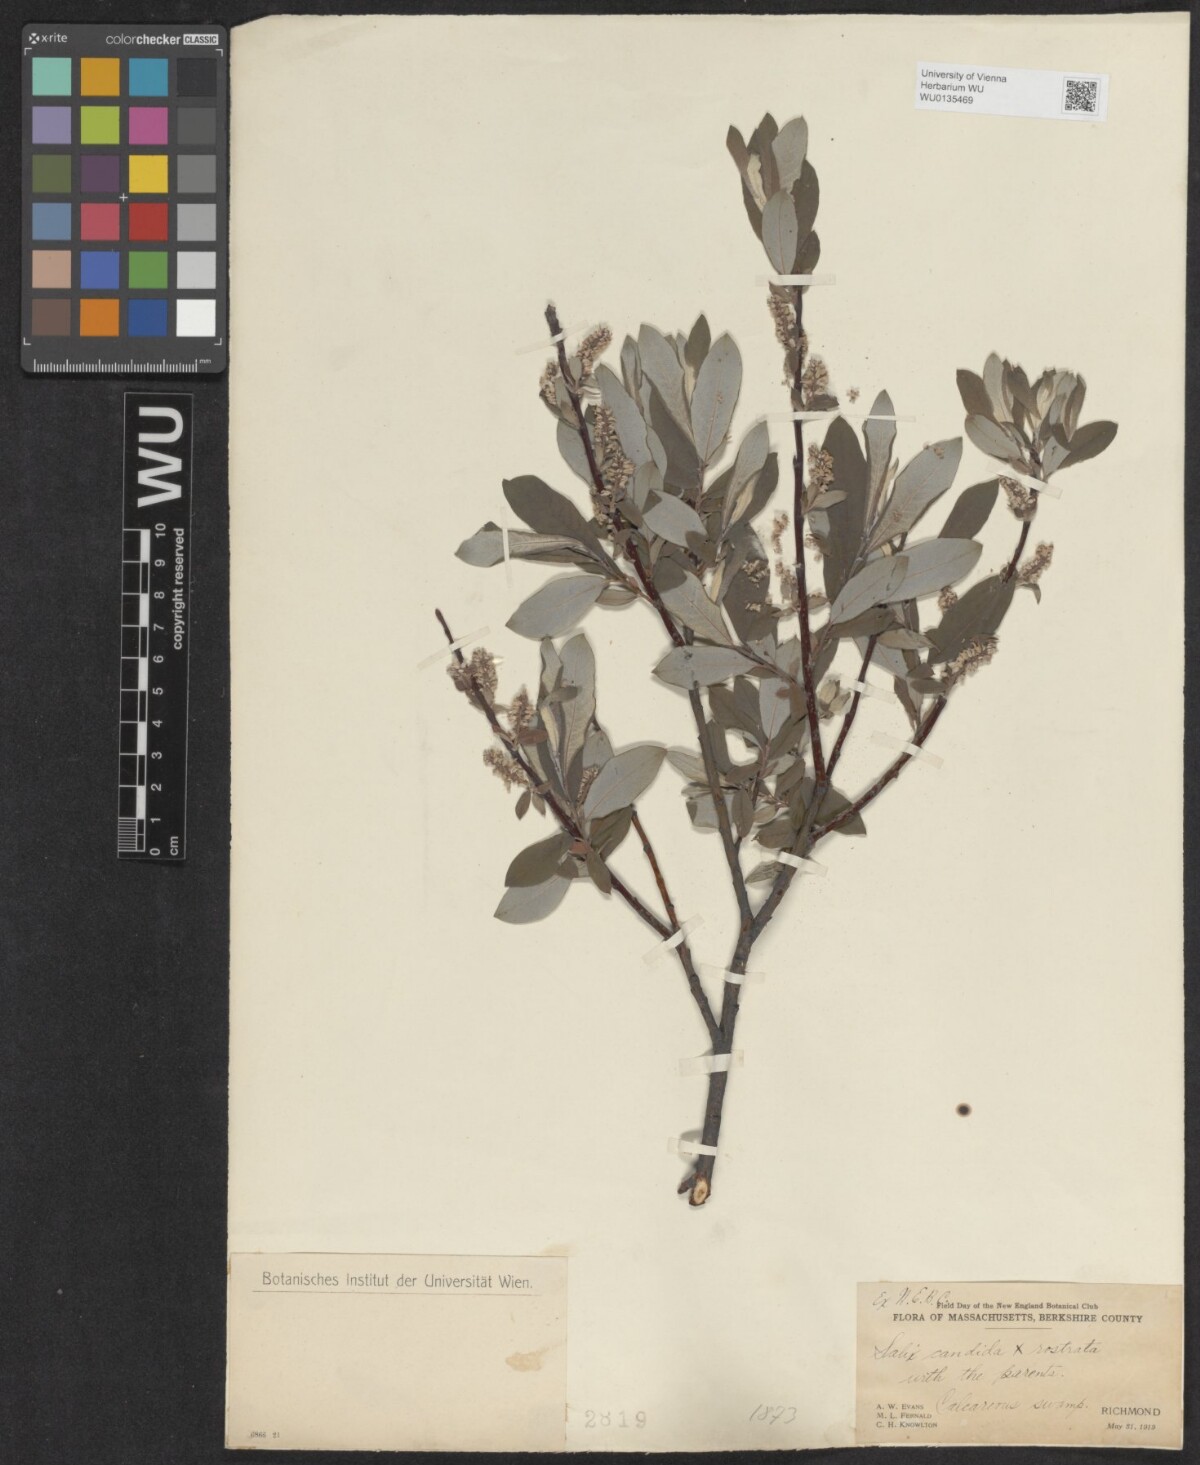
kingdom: Plantae
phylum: Tracheophyta
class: Magnoliopsida
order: Malpighiales
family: Salicaceae
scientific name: Salicaceae
